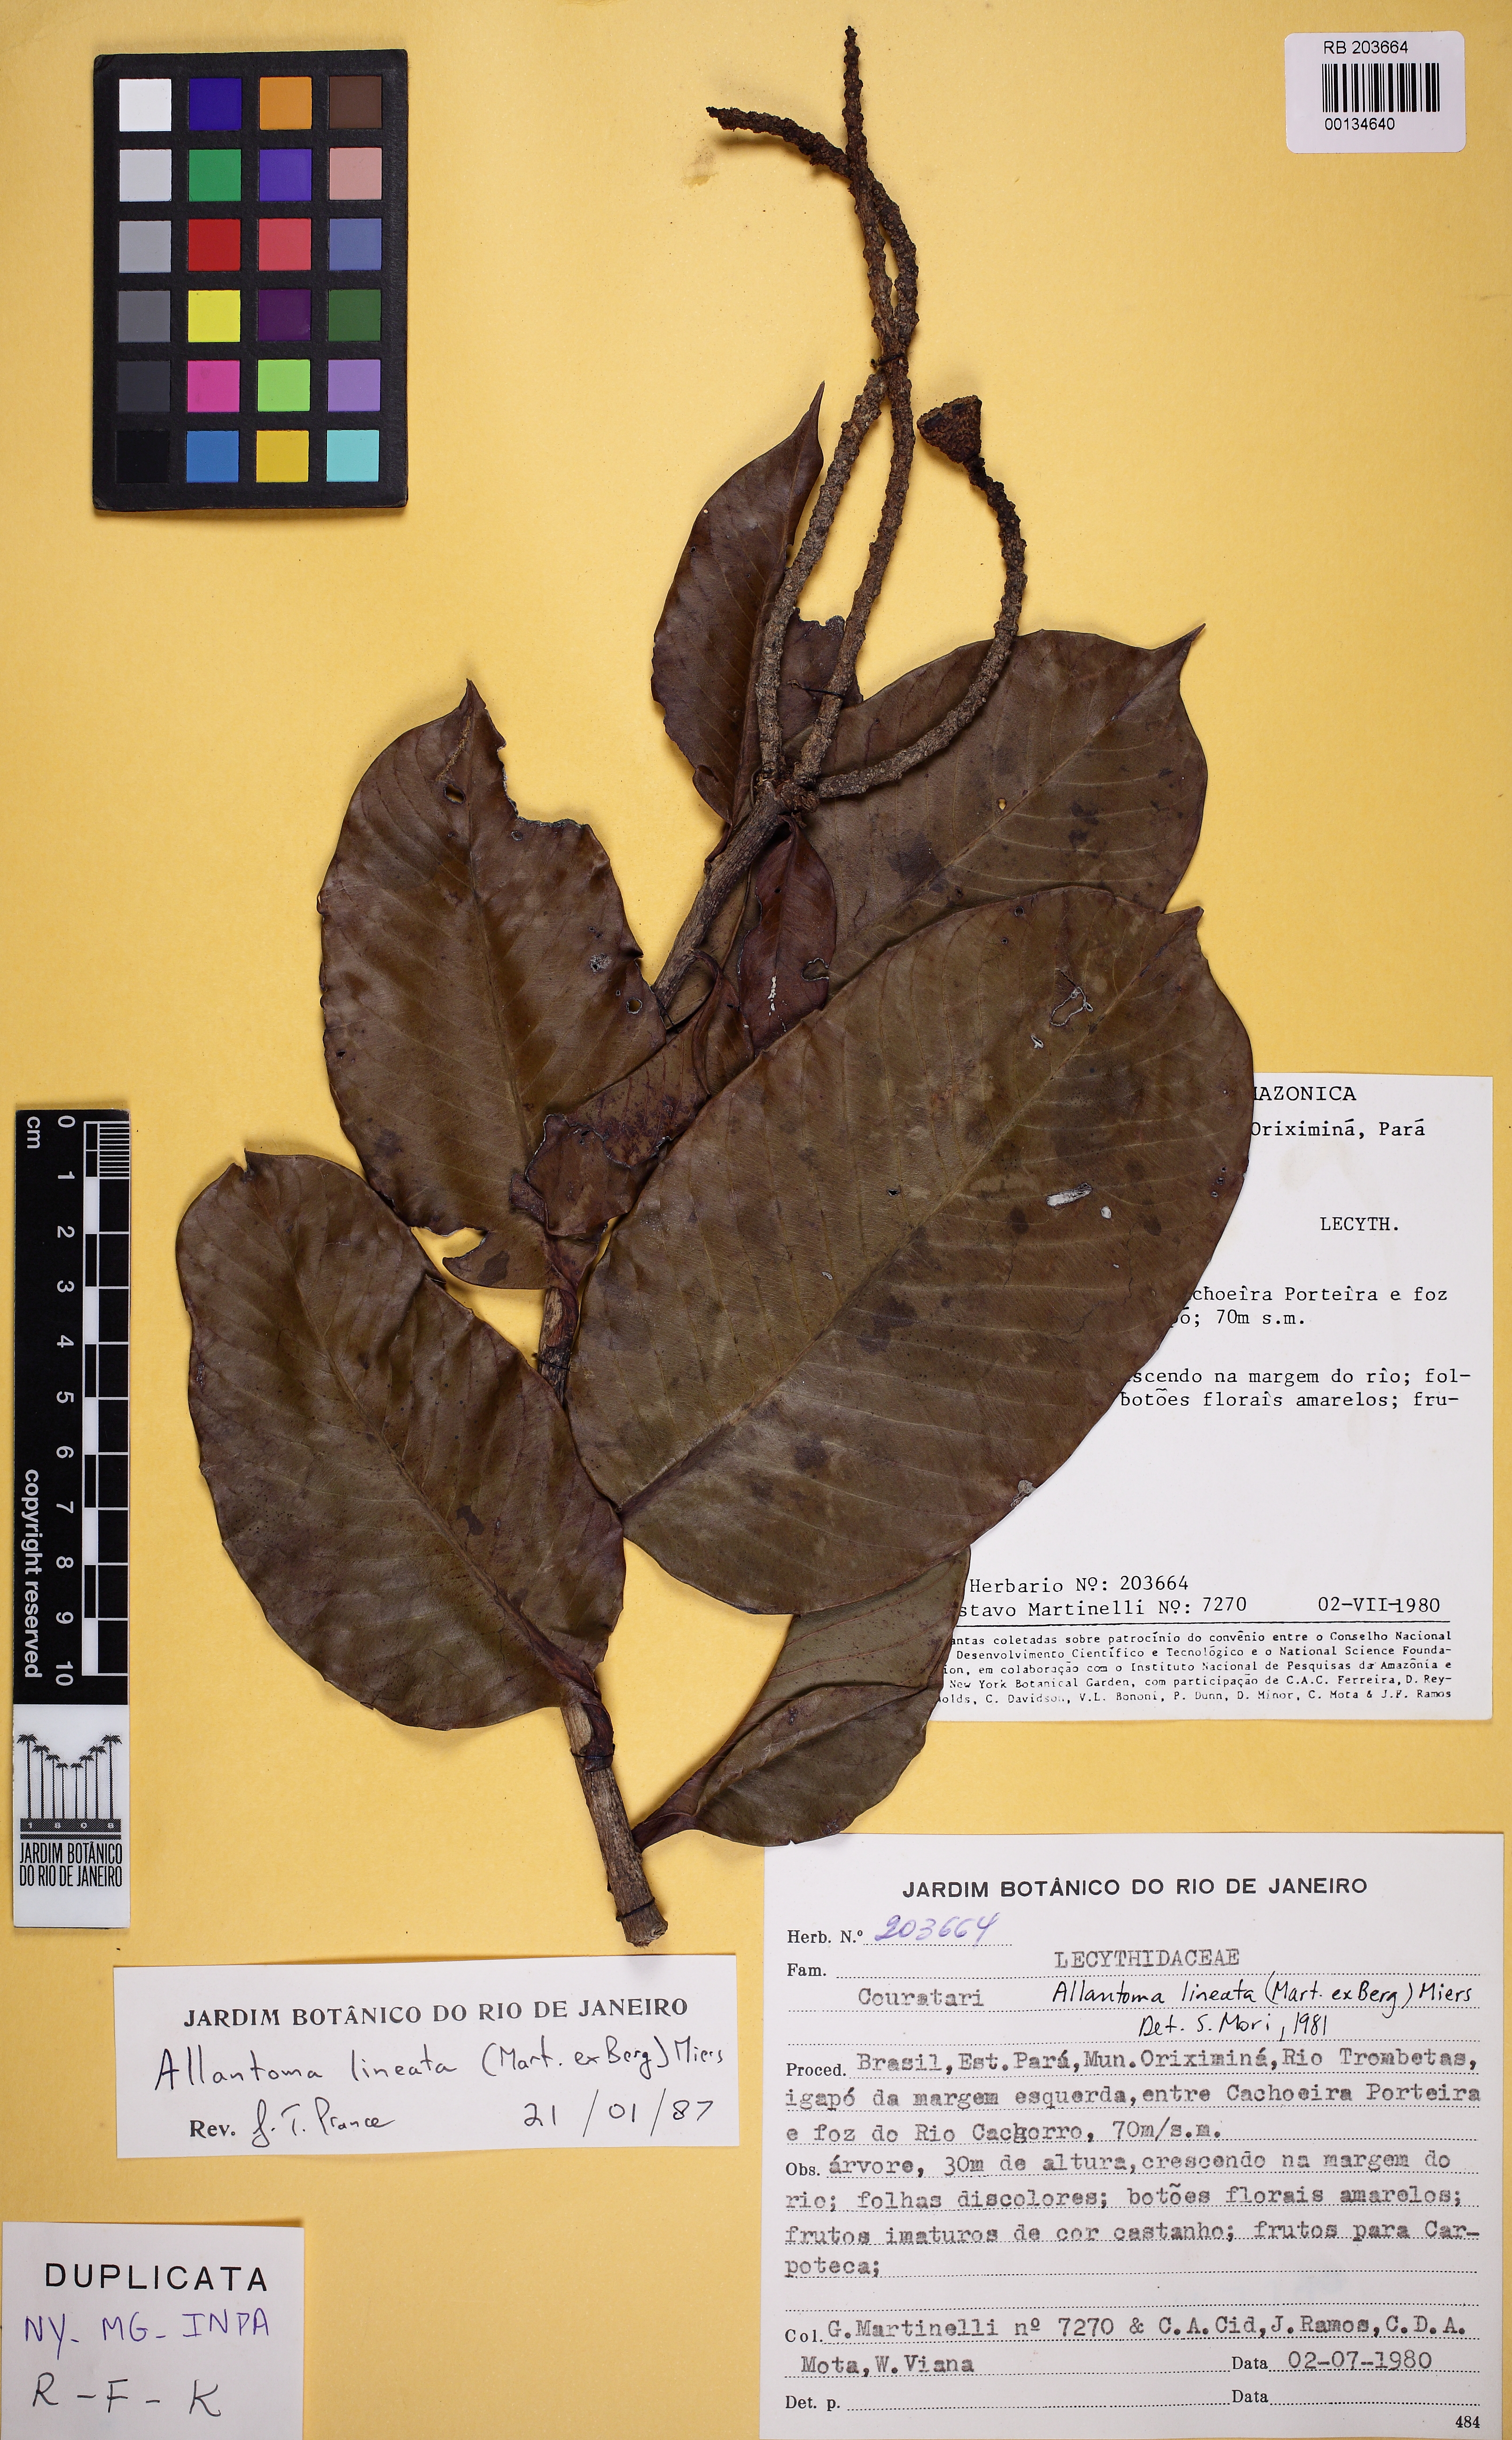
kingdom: Plantae
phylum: Tracheophyta
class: Magnoliopsida
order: Ericales
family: Lecythidaceae
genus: Allantoma
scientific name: Allantoma lineata
